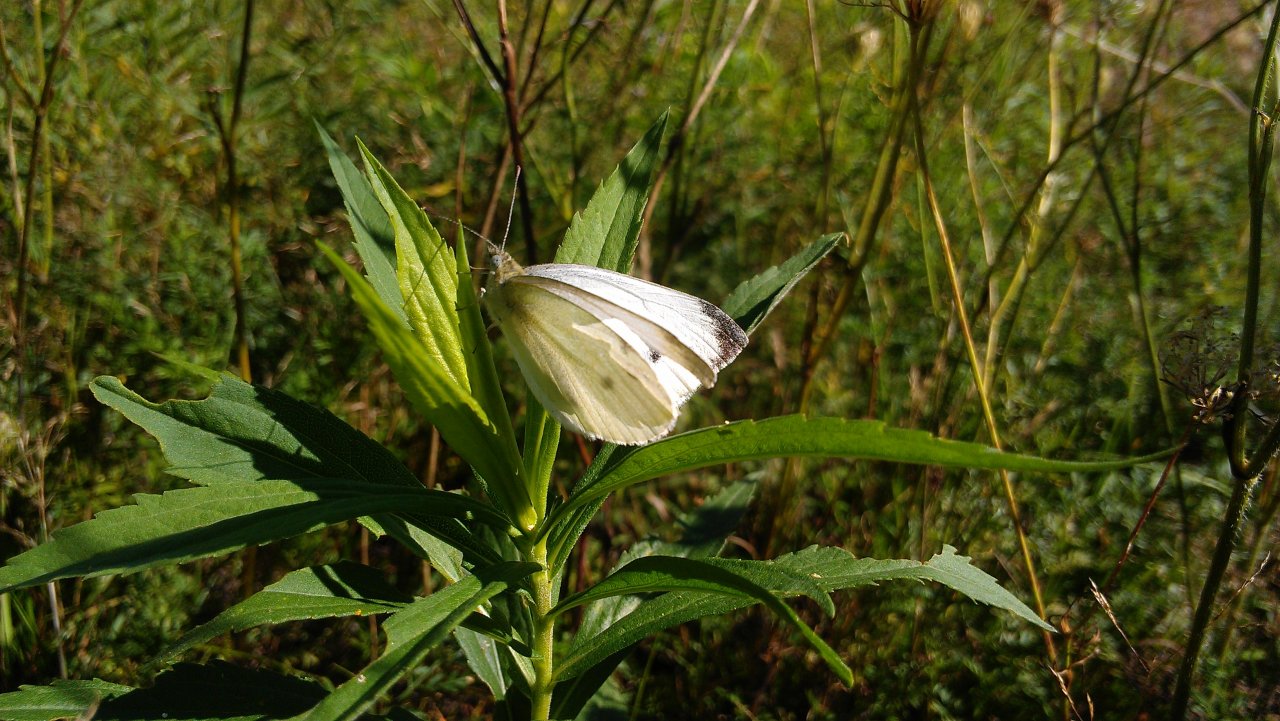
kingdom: Animalia
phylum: Arthropoda
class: Insecta
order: Lepidoptera
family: Pieridae
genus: Pieris
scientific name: Pieris rapae
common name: Cabbage White
